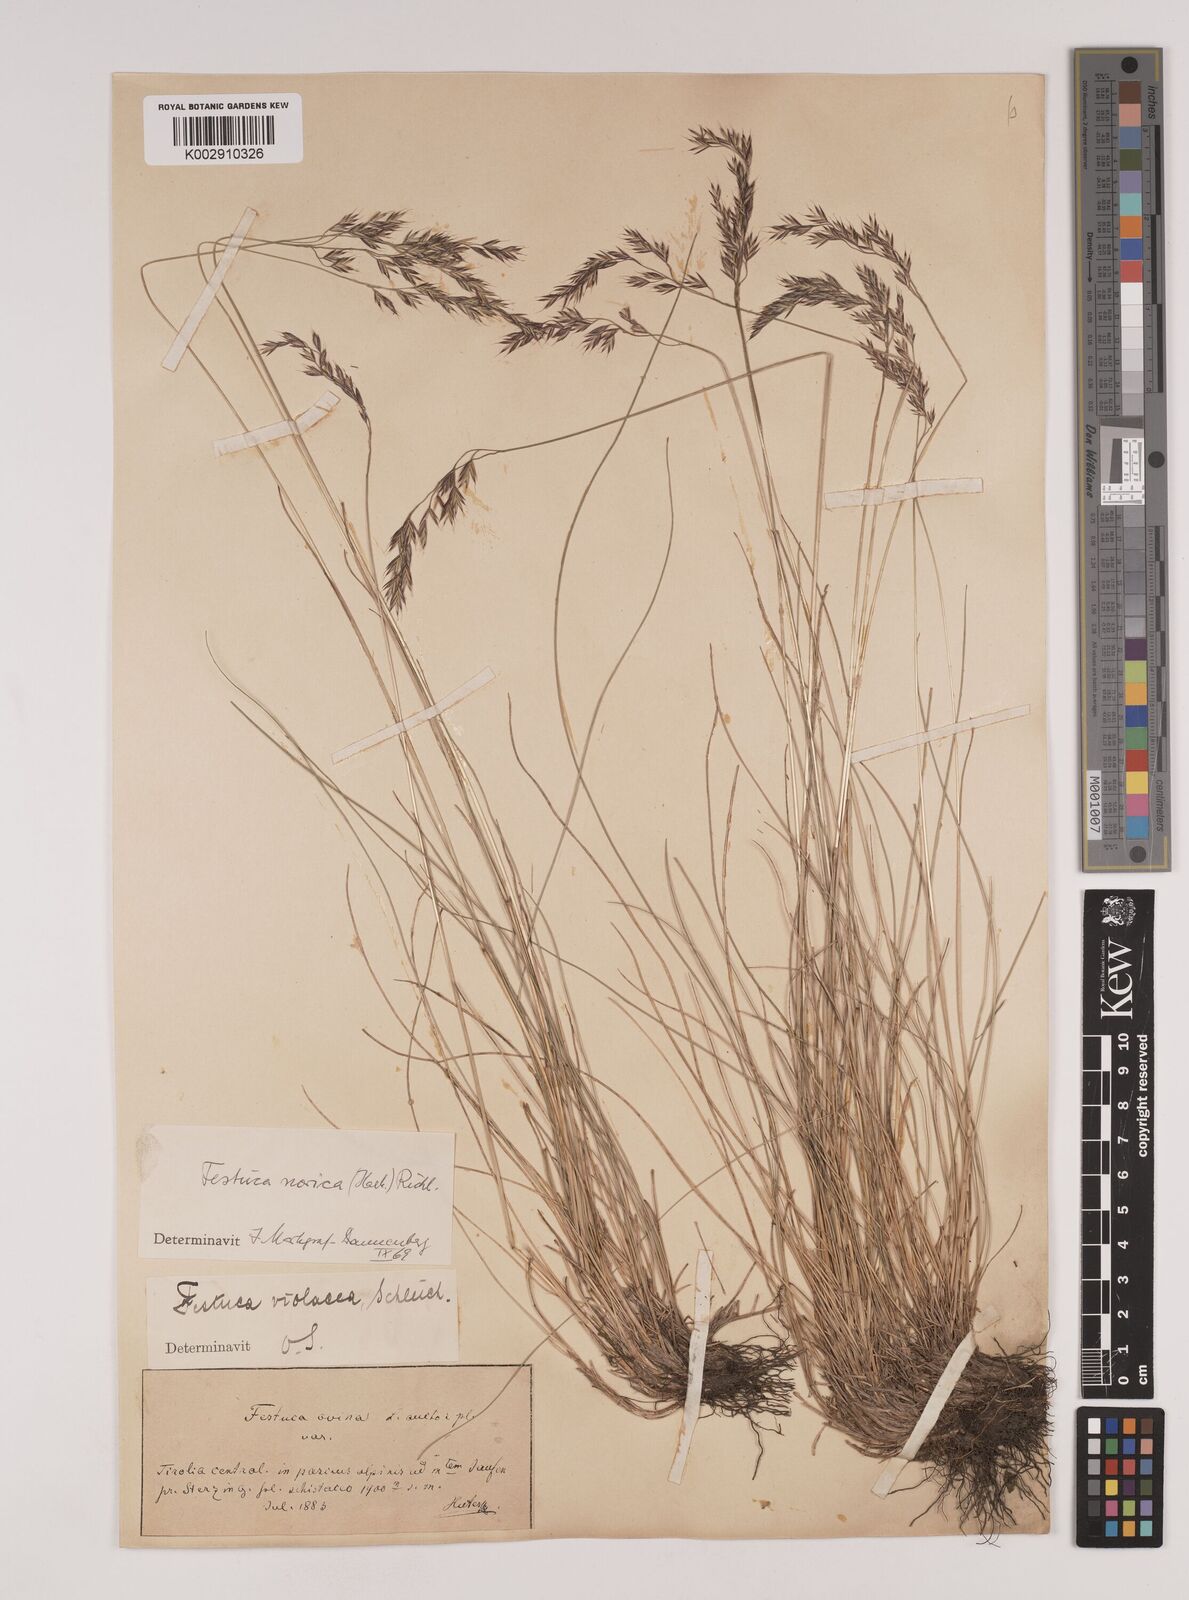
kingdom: Plantae
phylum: Tracheophyta
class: Liliopsida
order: Poales
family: Poaceae
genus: Festuca
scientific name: Festuca norica
